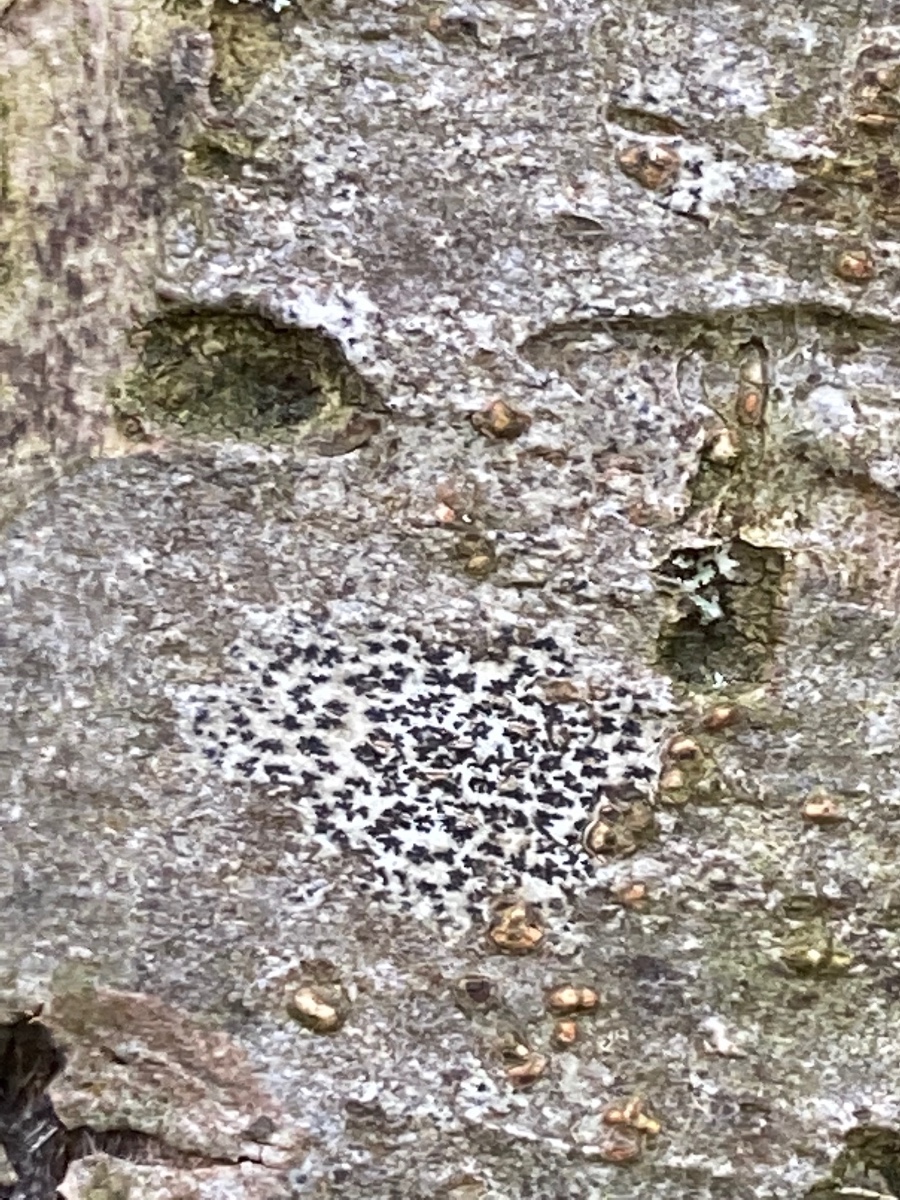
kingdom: Fungi
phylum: Ascomycota
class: Arthoniomycetes
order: Arthoniales
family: Arthoniaceae
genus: Arthonia
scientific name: Arthonia radiata
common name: stjerne-pletlav
